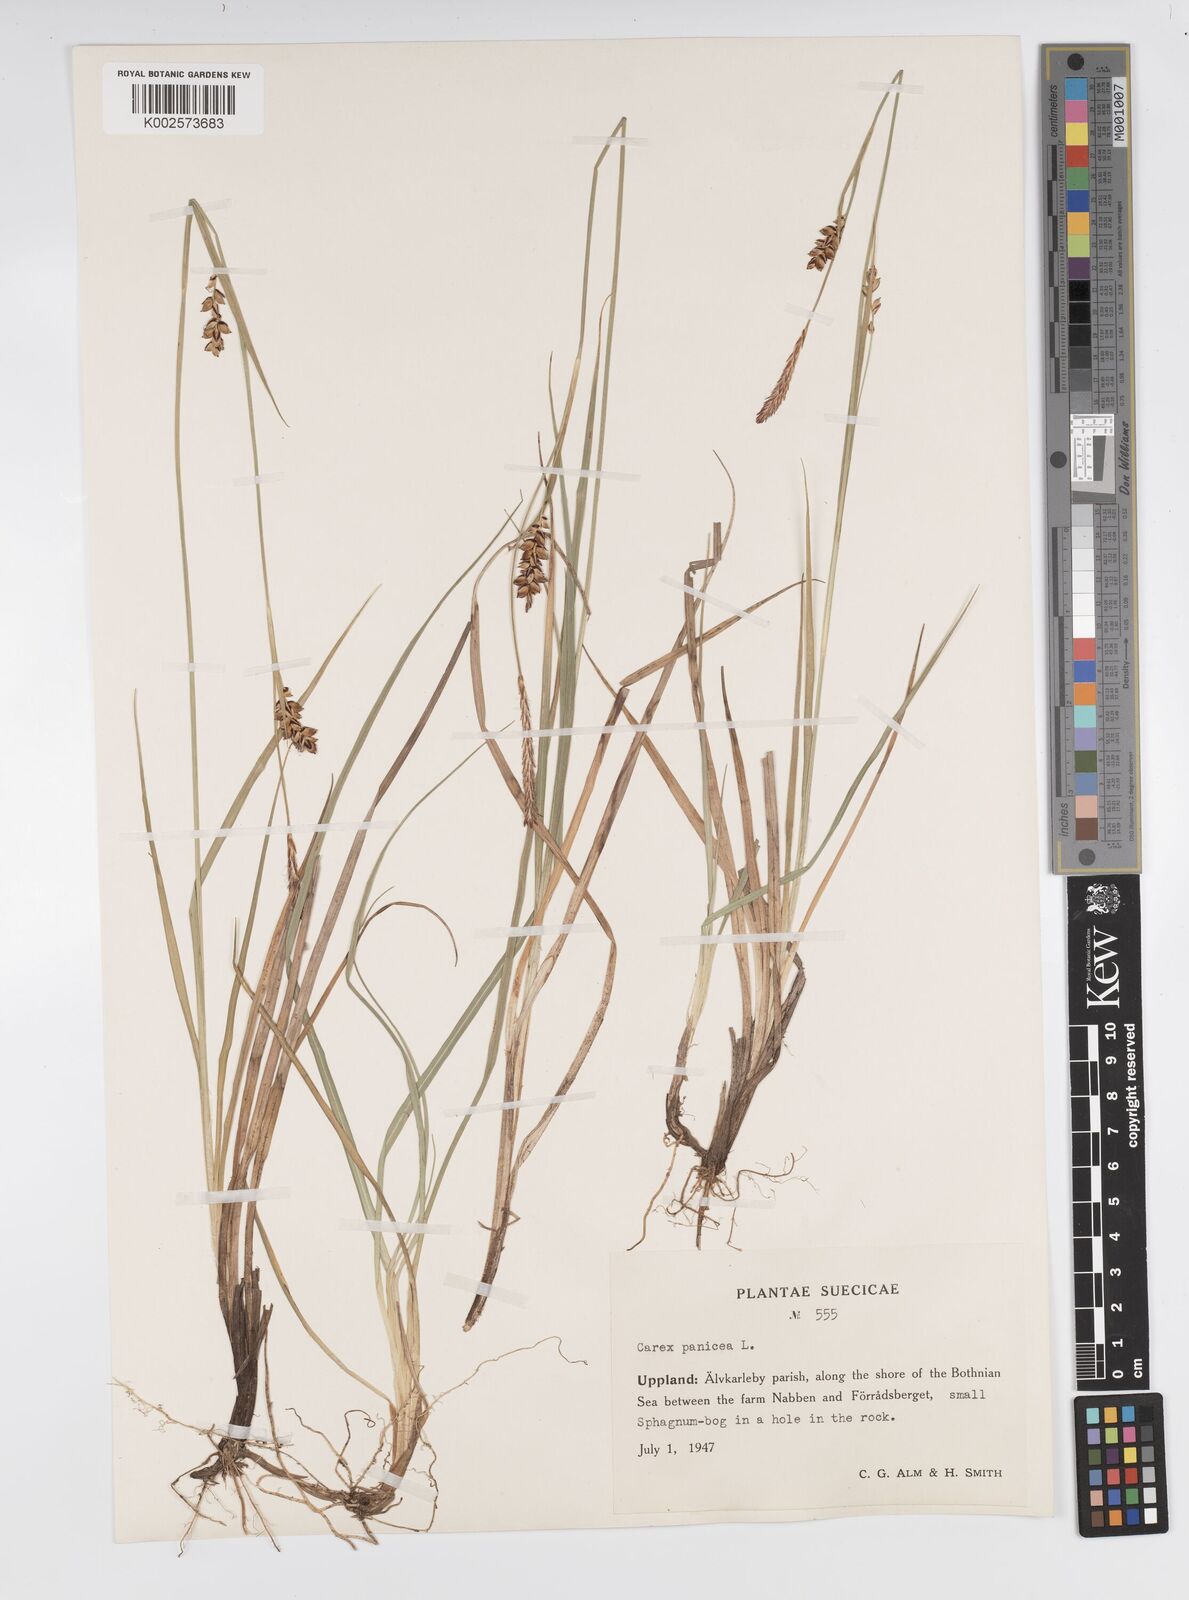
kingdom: Plantae
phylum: Tracheophyta
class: Liliopsida
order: Poales
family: Cyperaceae
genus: Carex
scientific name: Carex panicea
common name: Carnation sedge
